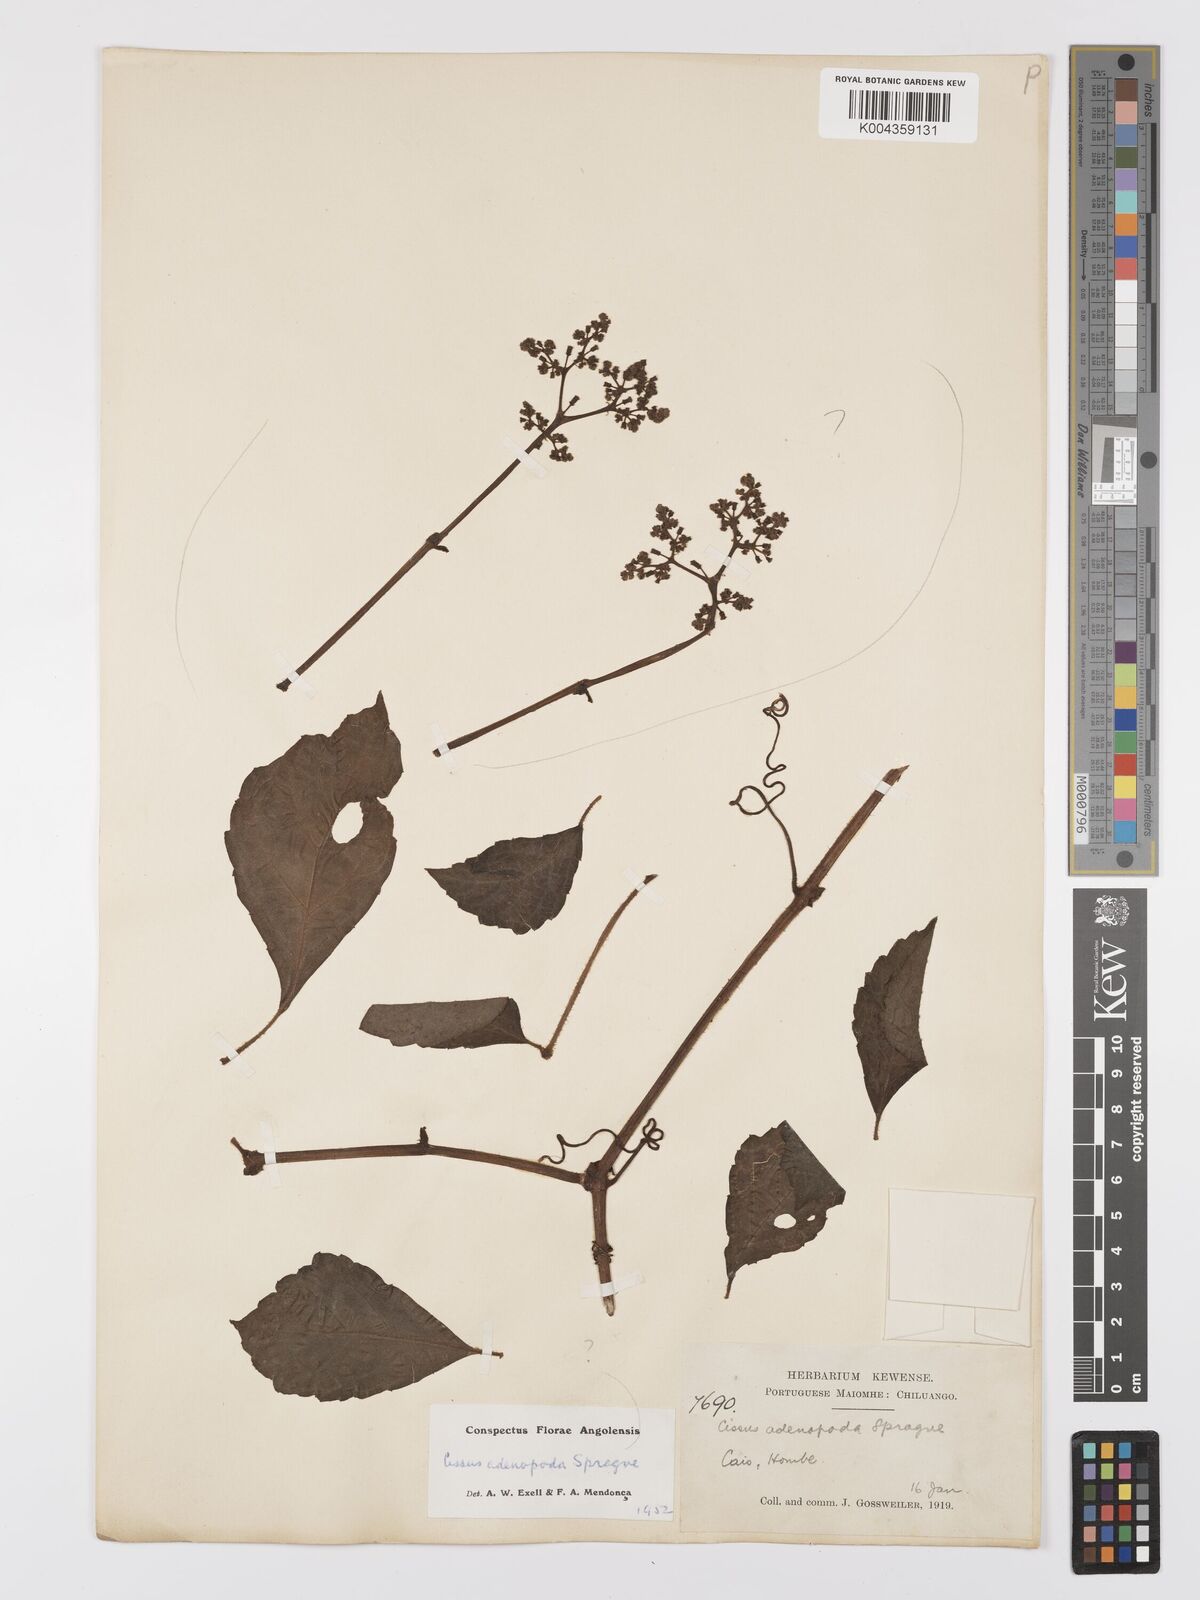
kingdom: Plantae
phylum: Tracheophyta
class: Magnoliopsida
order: Vitales
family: Vitaceae
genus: Cyphostemma
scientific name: Cyphostemma adenopodum
